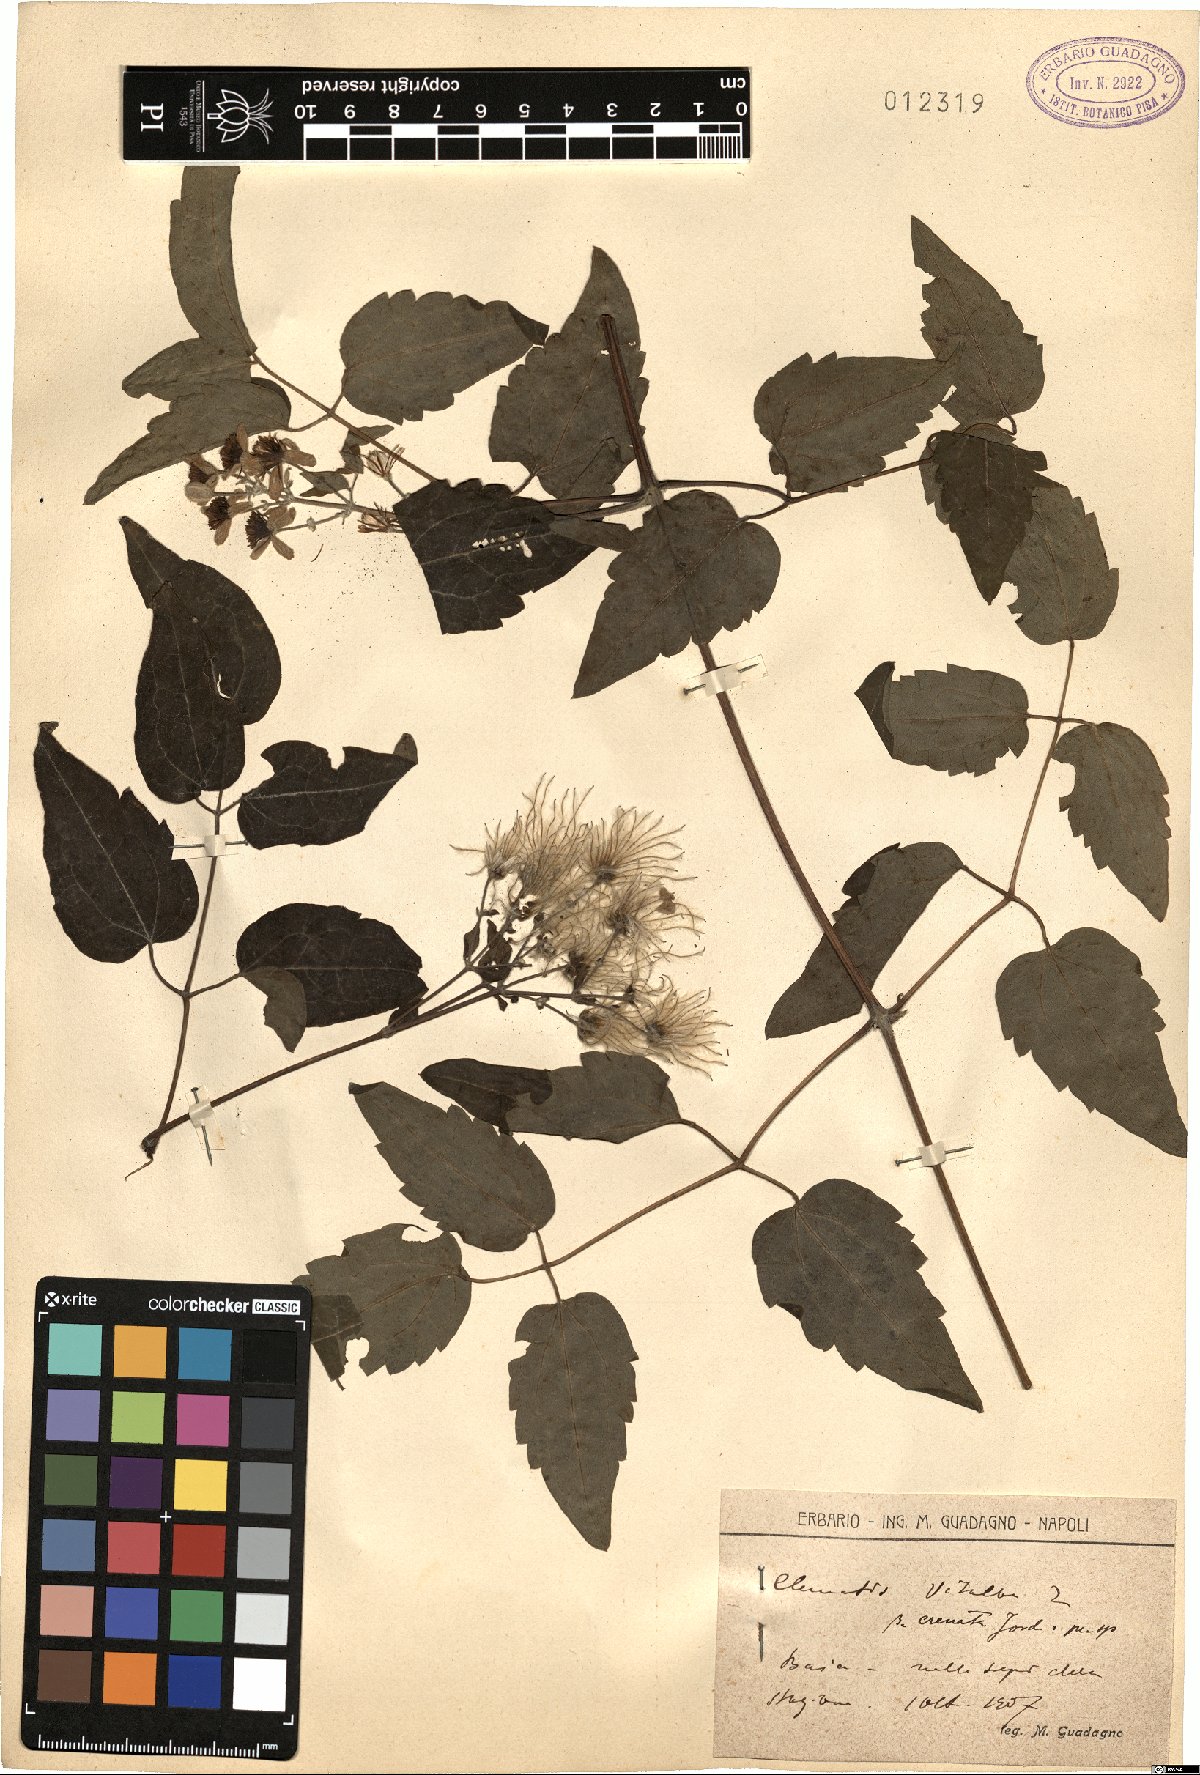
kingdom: Plantae
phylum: Tracheophyta
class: Magnoliopsida
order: Ranunculales
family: Ranunculaceae
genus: Clematis
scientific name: Clematis vitalba
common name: Evergreen clematis
